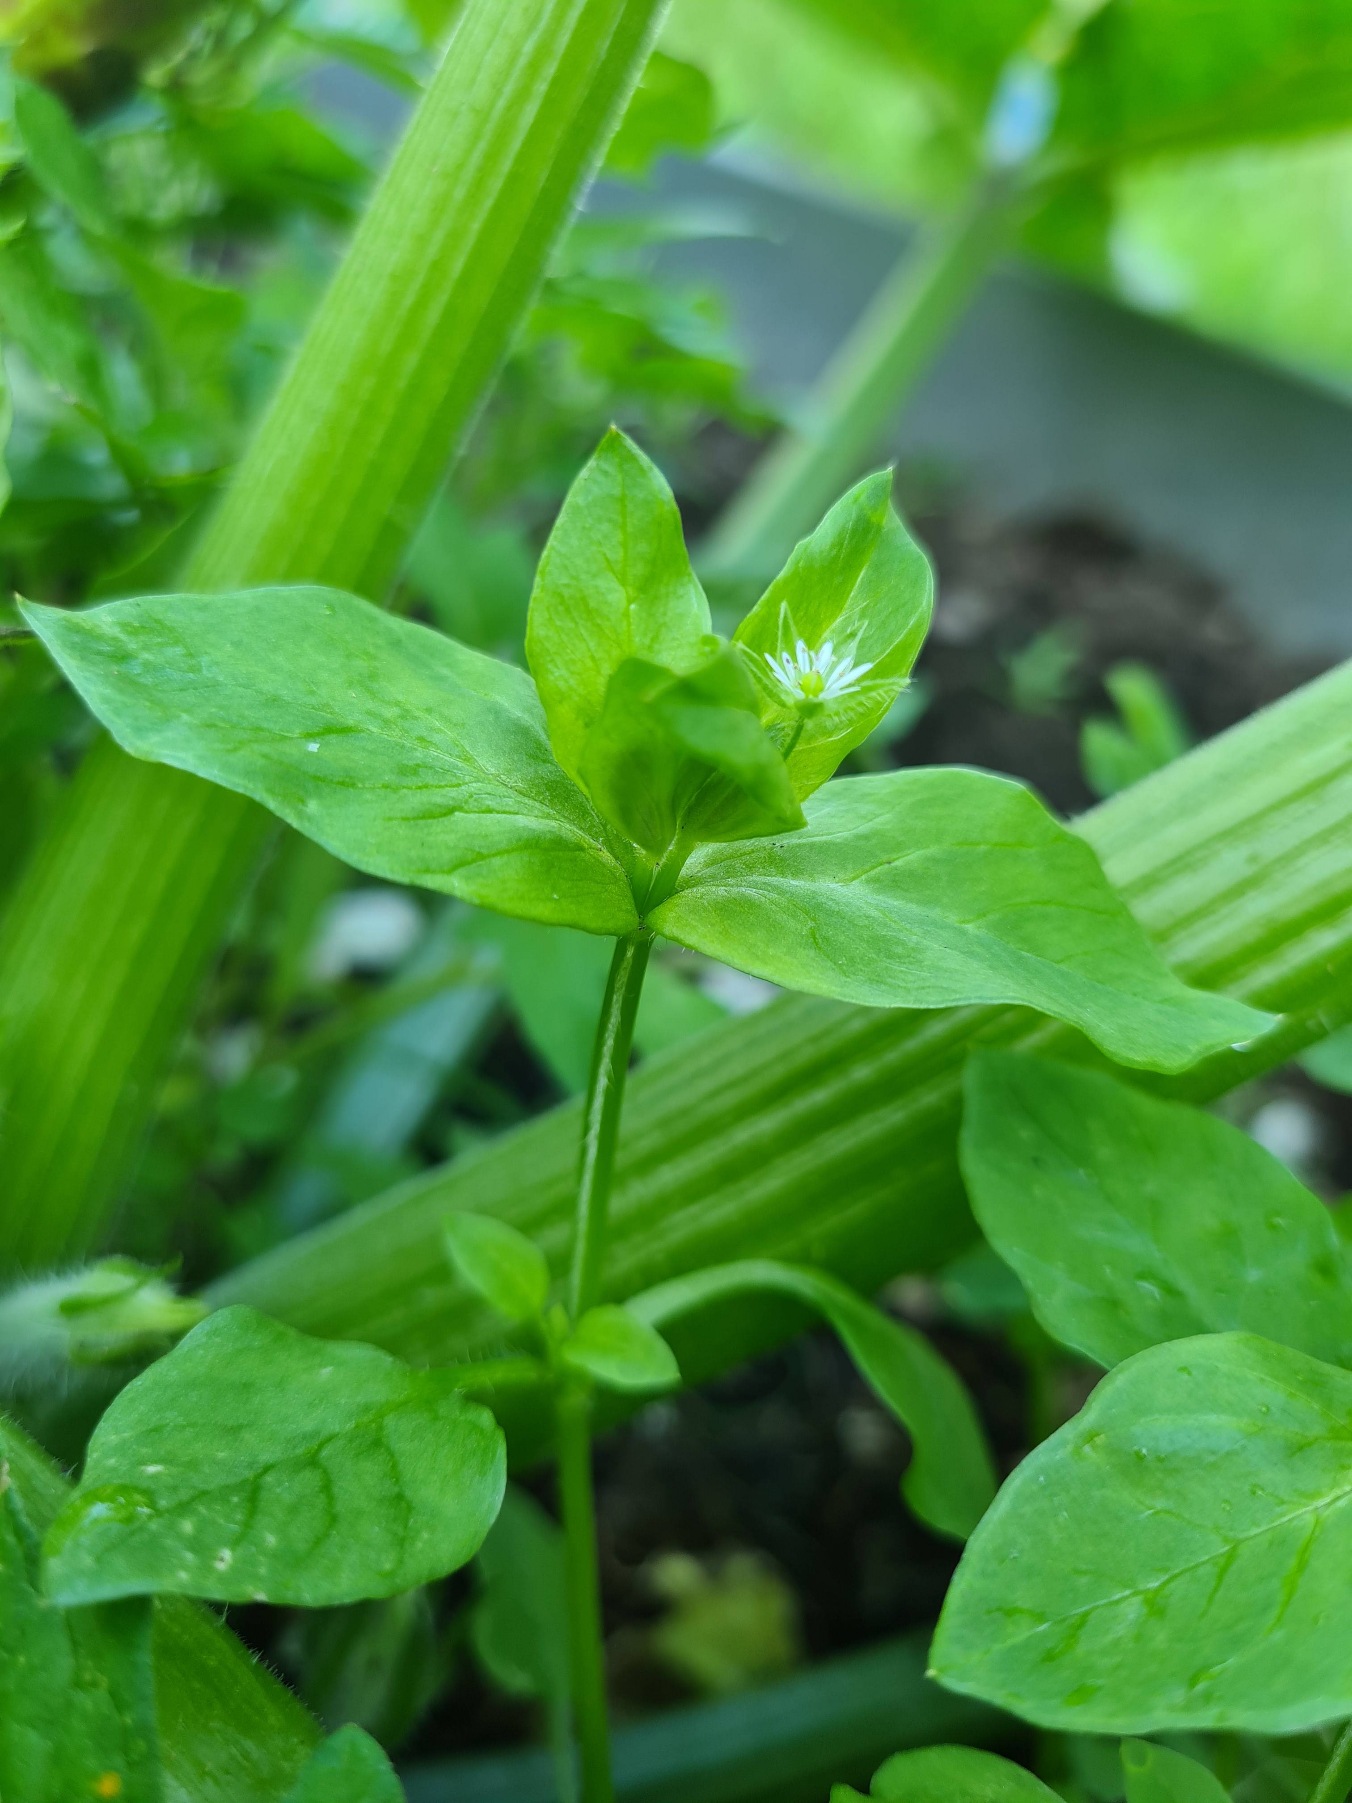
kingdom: Plantae
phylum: Tracheophyta
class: Magnoliopsida
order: Caryophyllales
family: Caryophyllaceae
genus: Stellaria
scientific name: Stellaria media
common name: Almindelig fuglegræs
